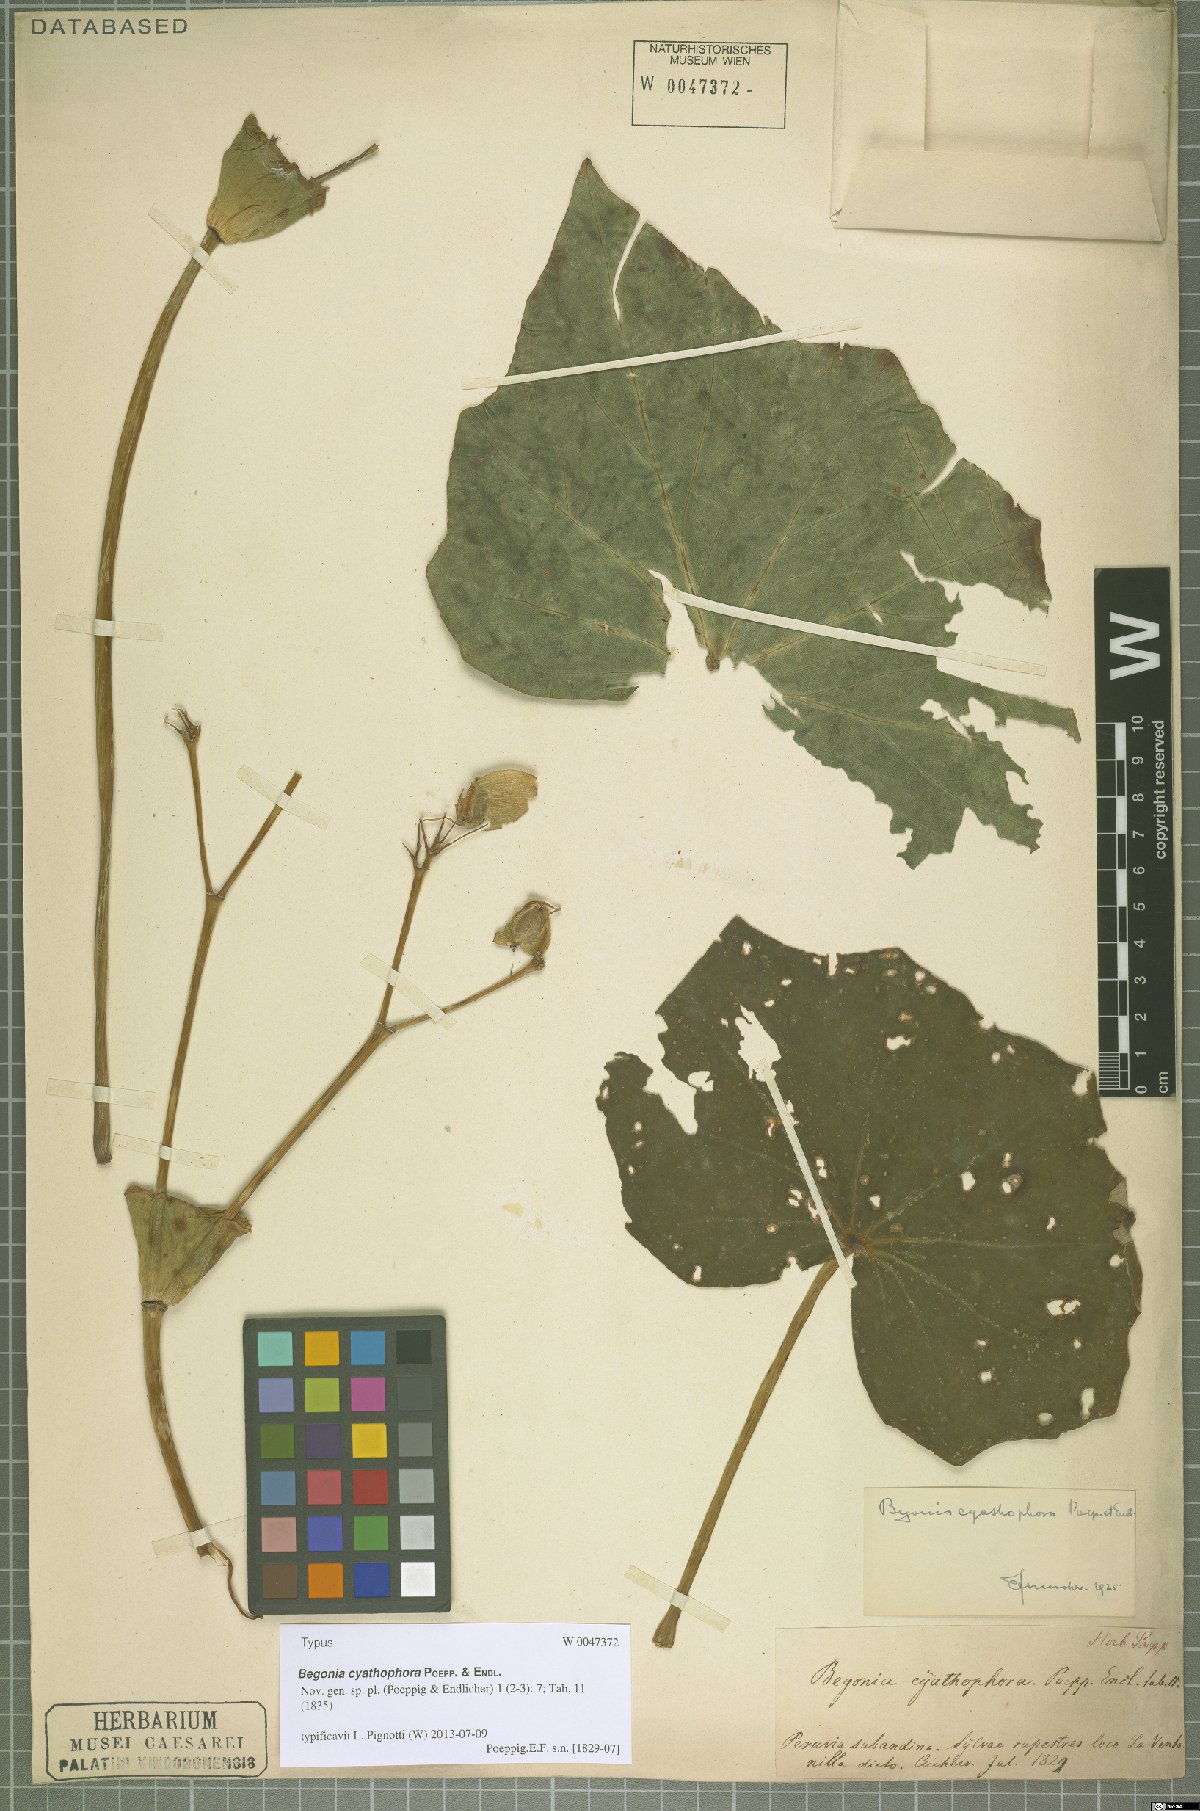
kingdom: Plantae
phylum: Tracheophyta
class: Magnoliopsida
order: Cucurbitales
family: Begoniaceae
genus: Begonia
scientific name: Begonia cyathophora
